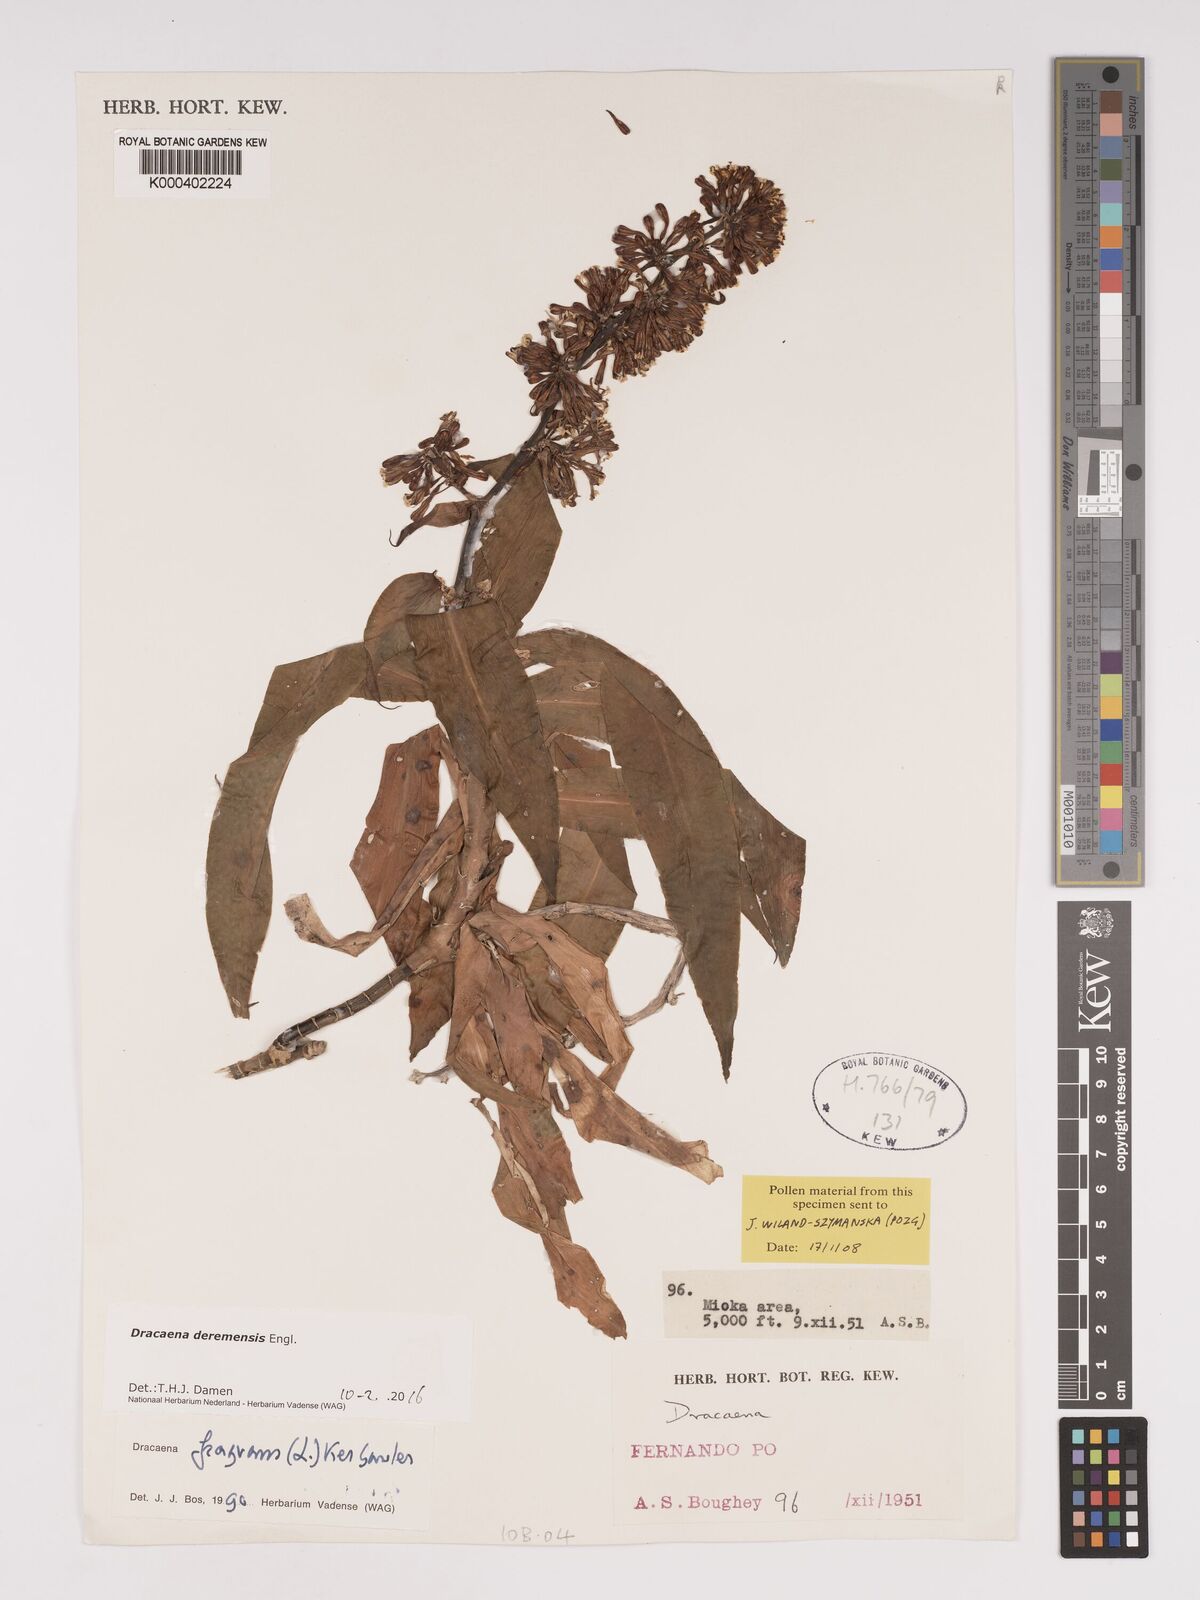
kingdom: Plantae
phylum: Tracheophyta
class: Liliopsida
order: Asparagales
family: Asparagaceae
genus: Dracaena
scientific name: Dracaena fragrans
